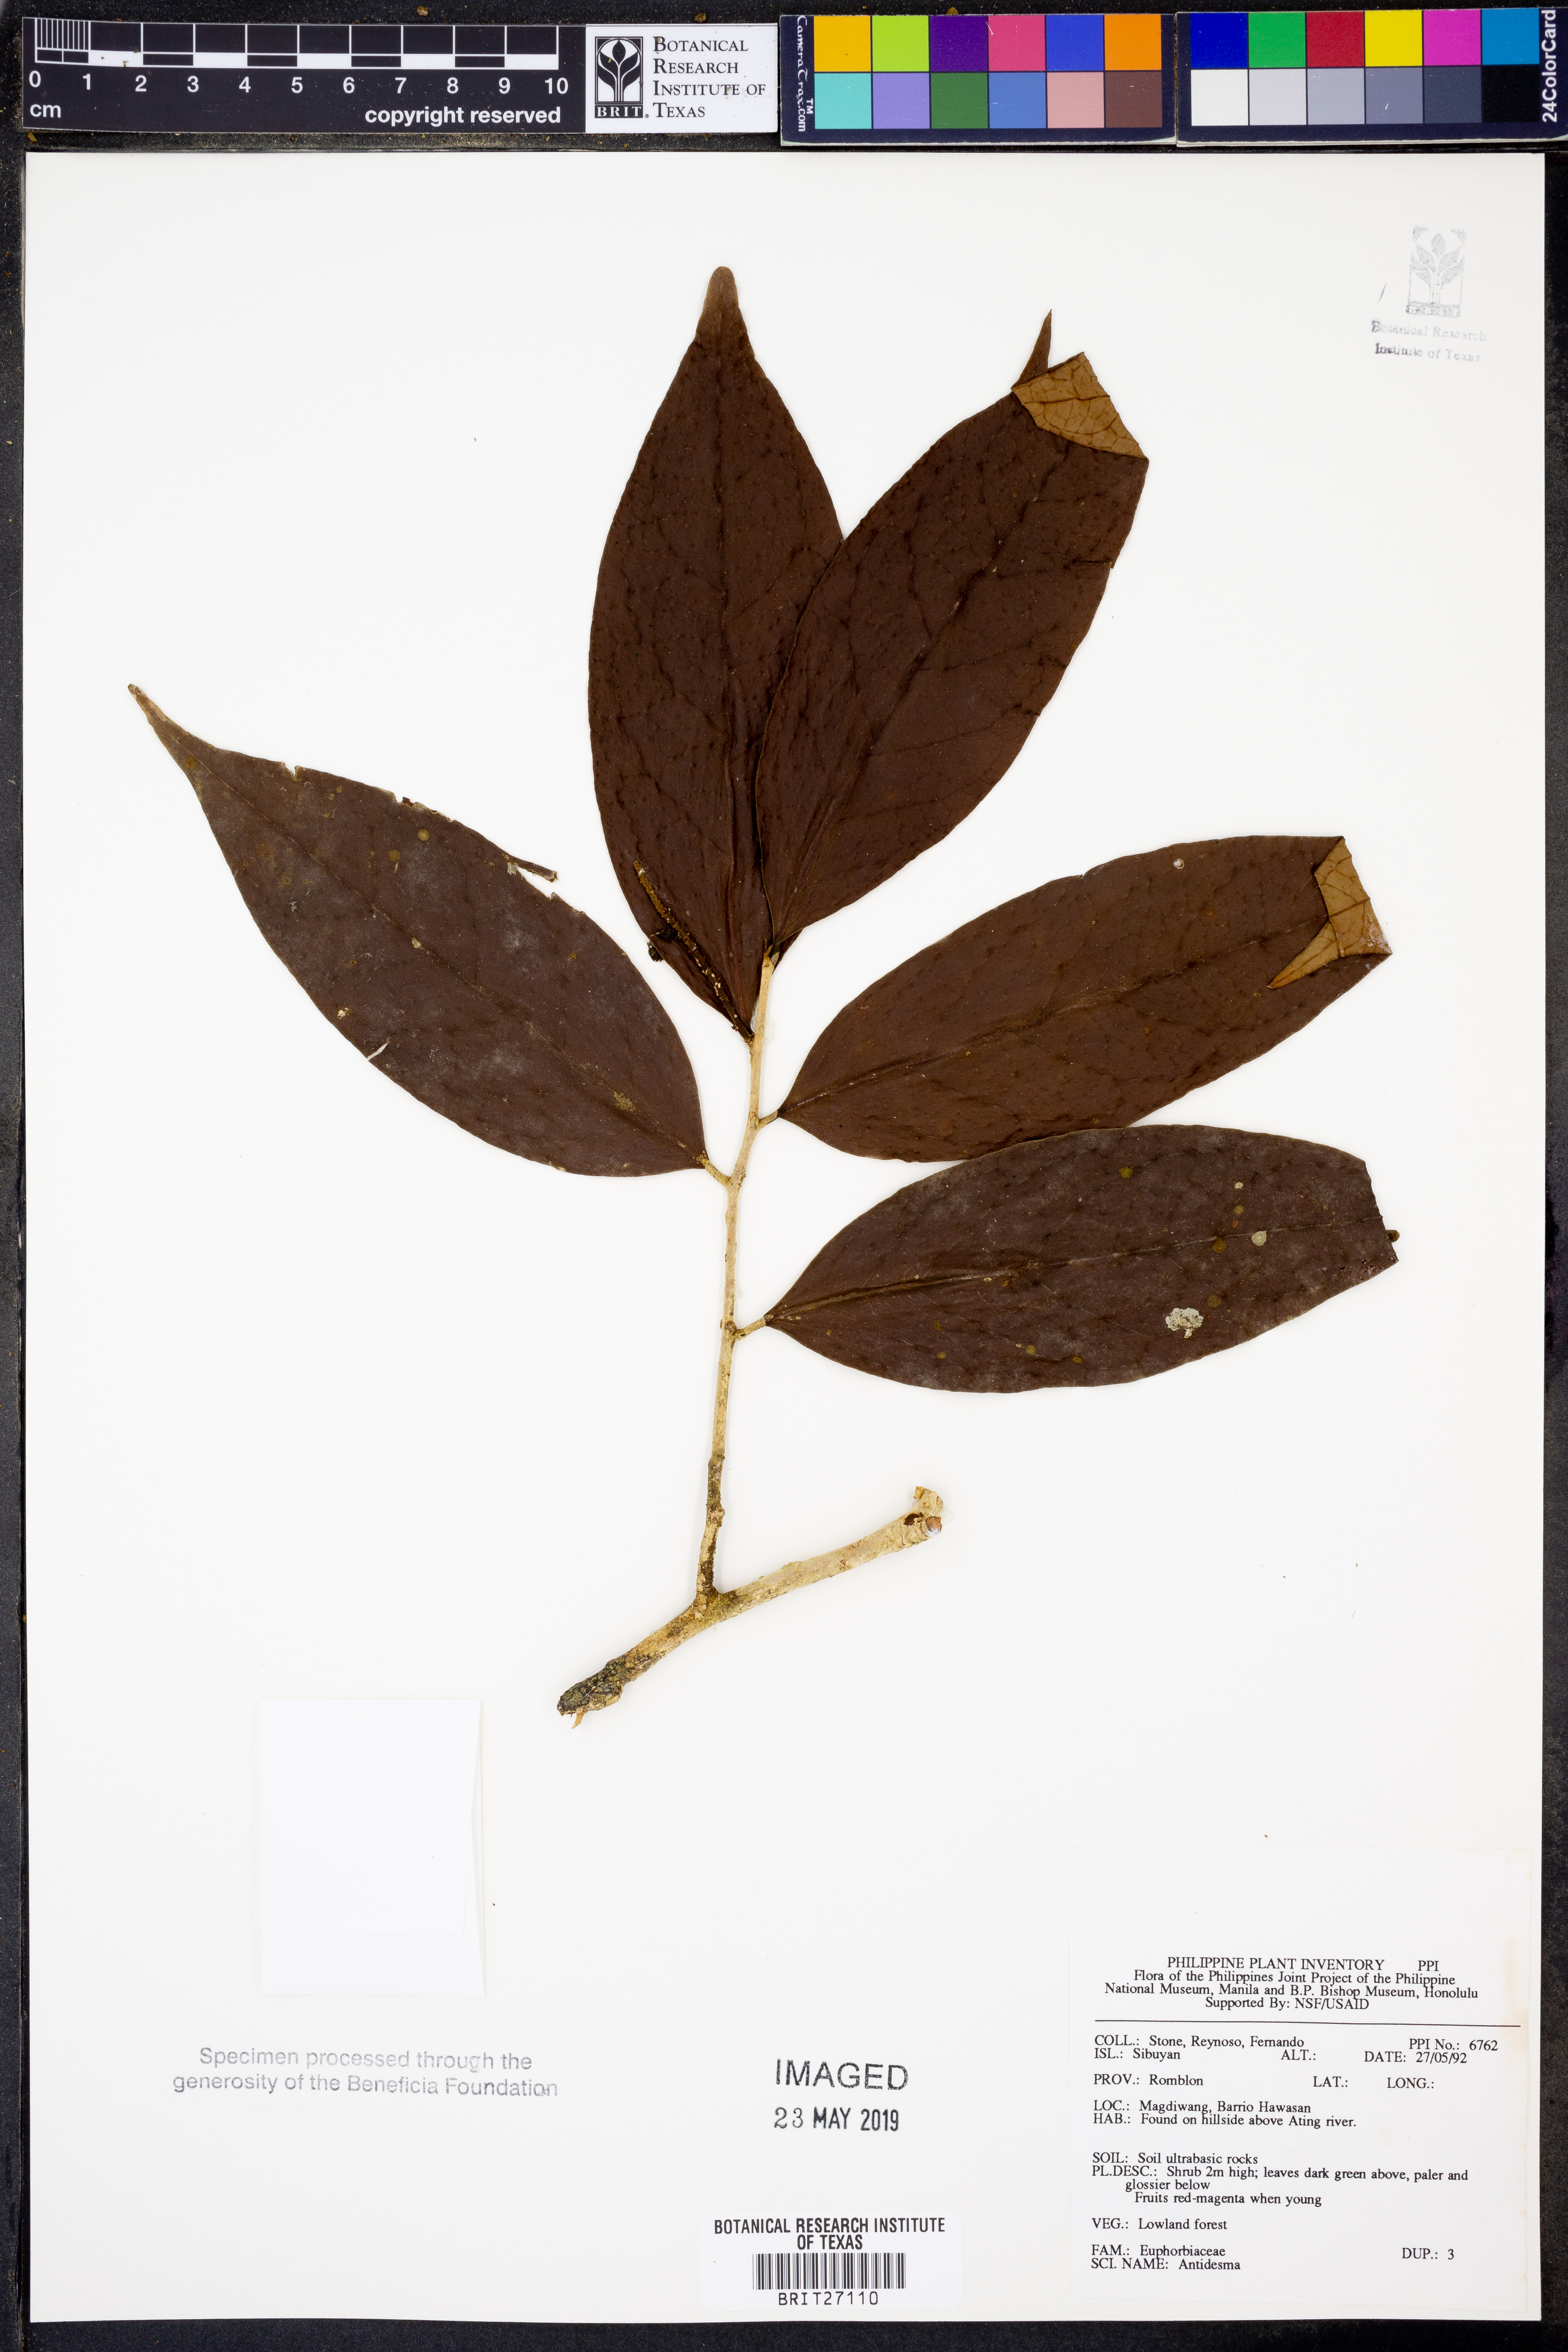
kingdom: Plantae
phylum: Tracheophyta
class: Magnoliopsida
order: Malpighiales
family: Phyllanthaceae
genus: Antidesma
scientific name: Antidesma
